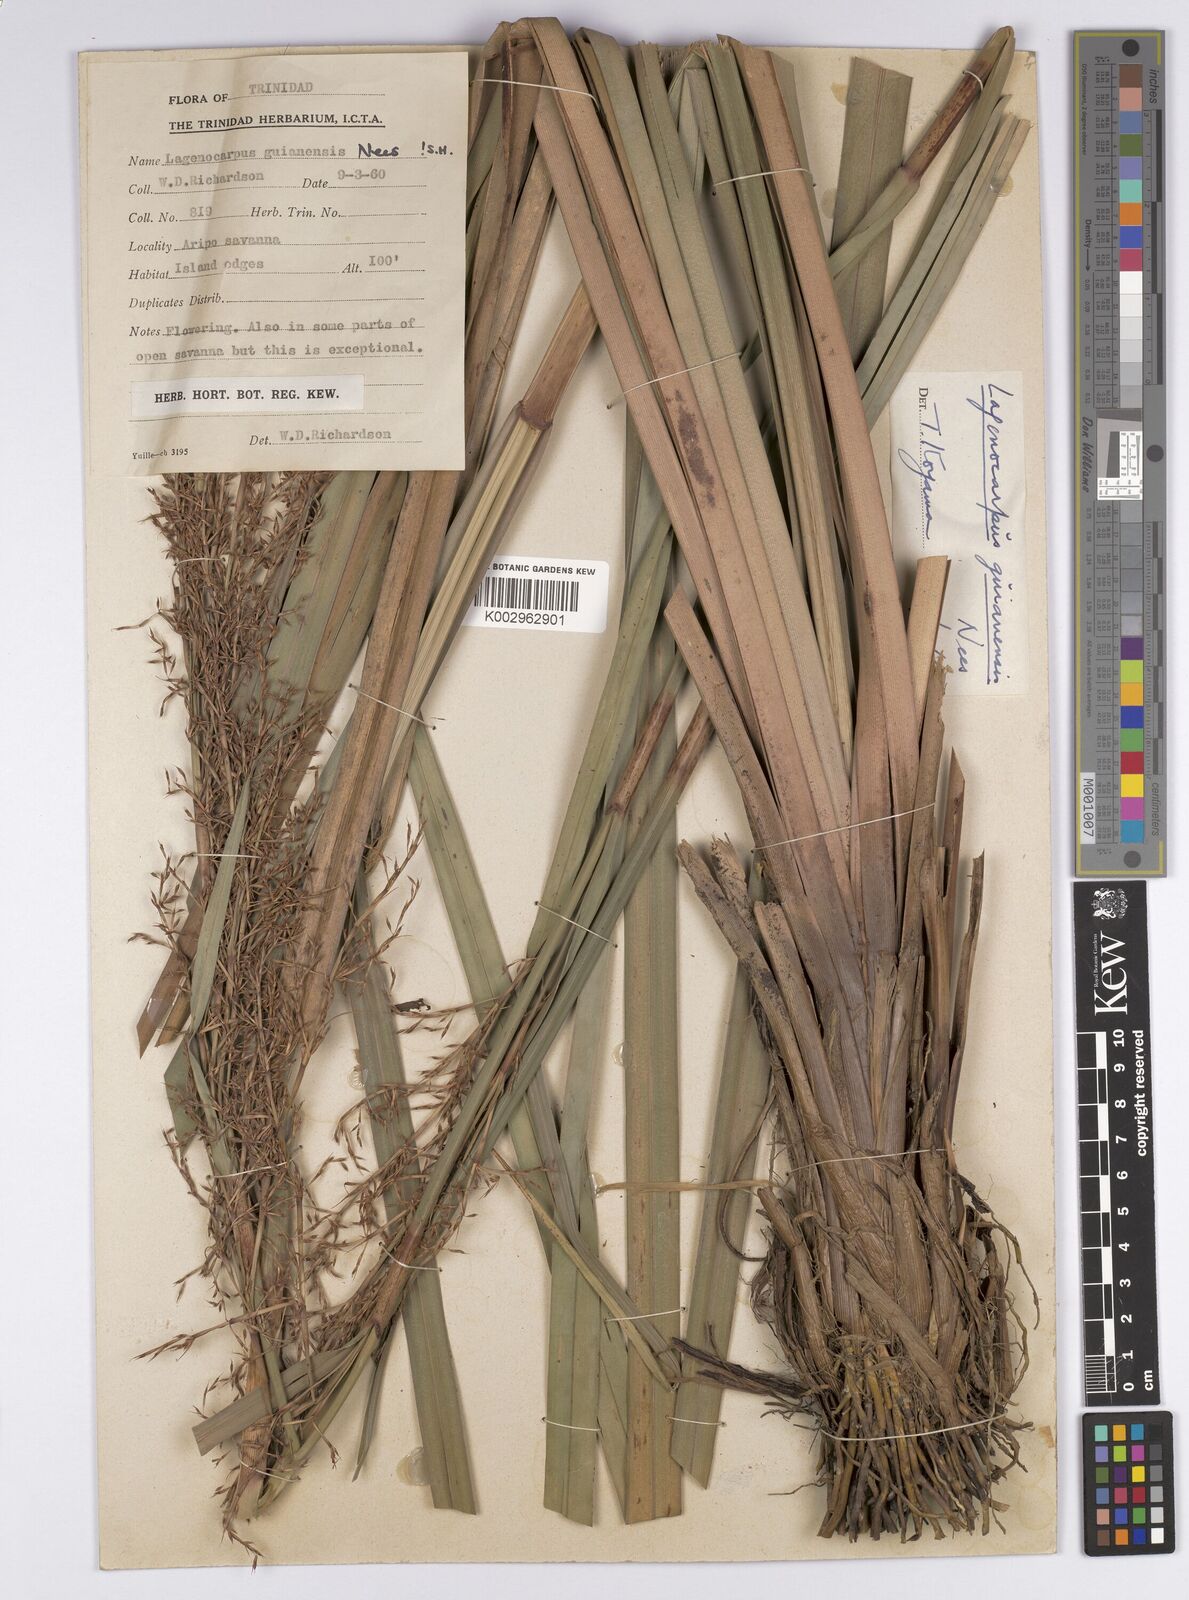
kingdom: Plantae
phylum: Tracheophyta
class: Liliopsida
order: Poales
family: Cyperaceae
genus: Lagenocarpus
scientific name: Lagenocarpus guianensis
